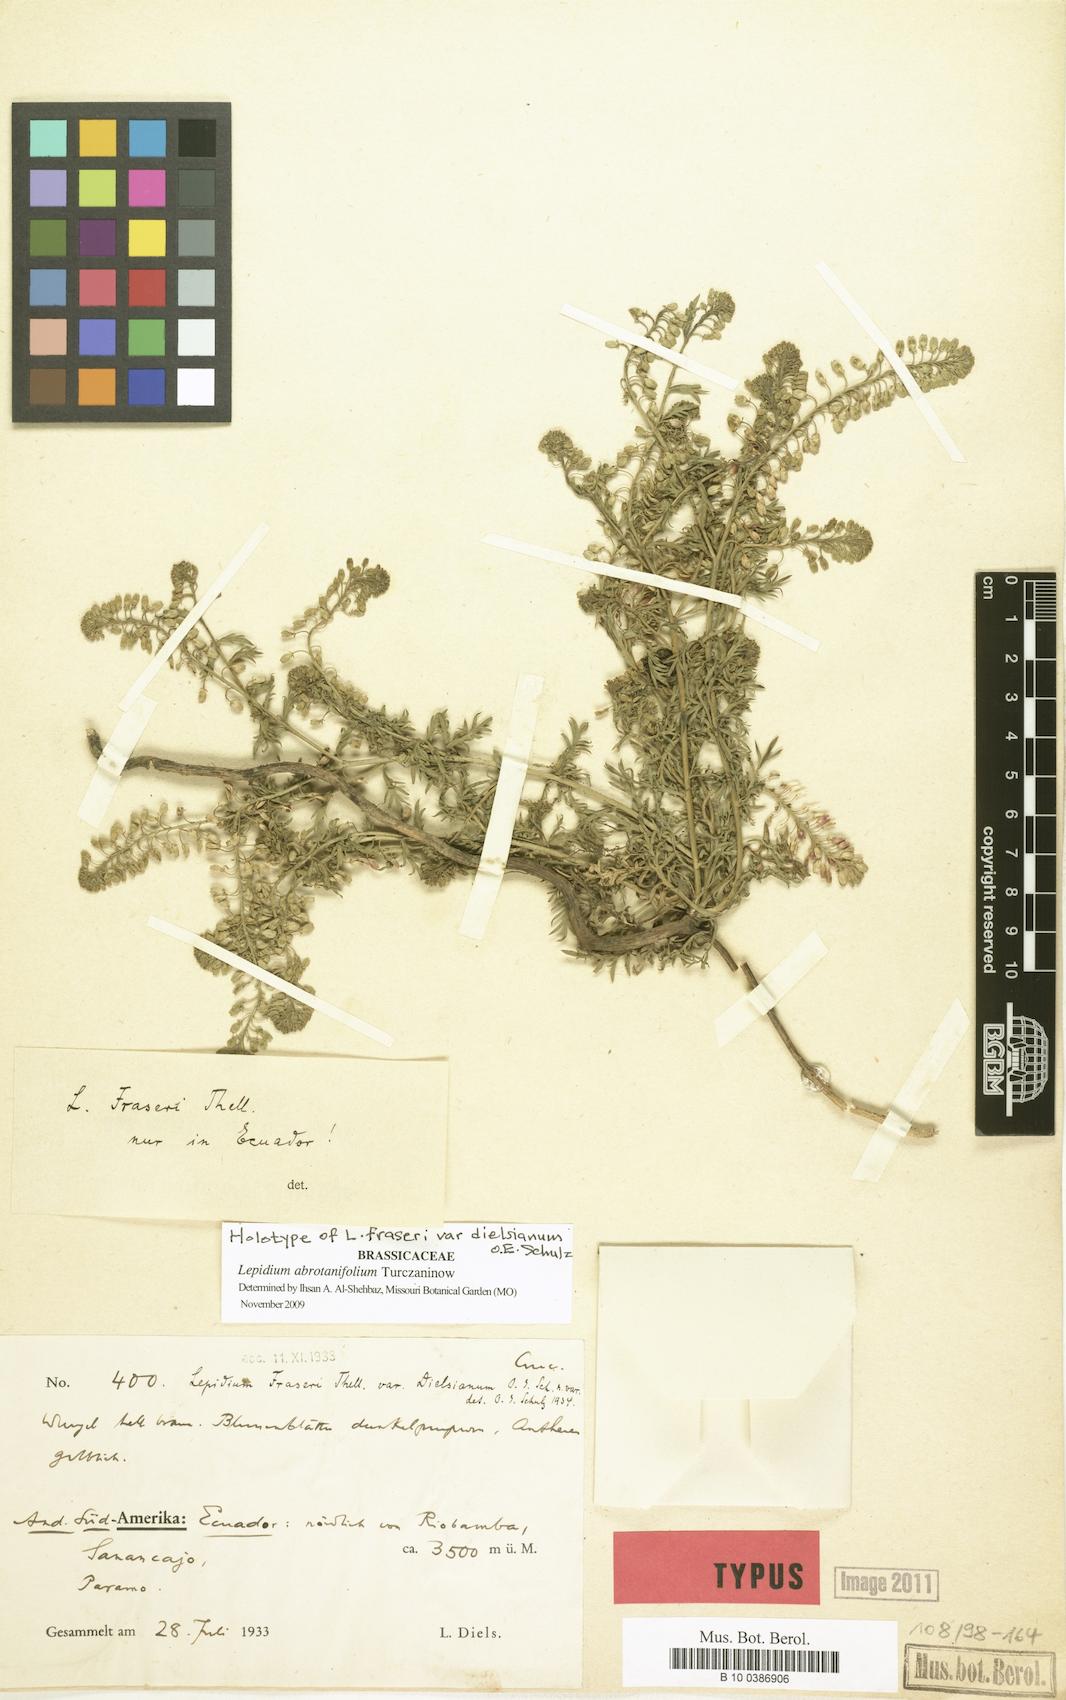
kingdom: Plantae
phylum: Tracheophyta
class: Magnoliopsida
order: Brassicales
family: Brassicaceae
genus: Lepidium
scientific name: Lepidium abrotanifolium
